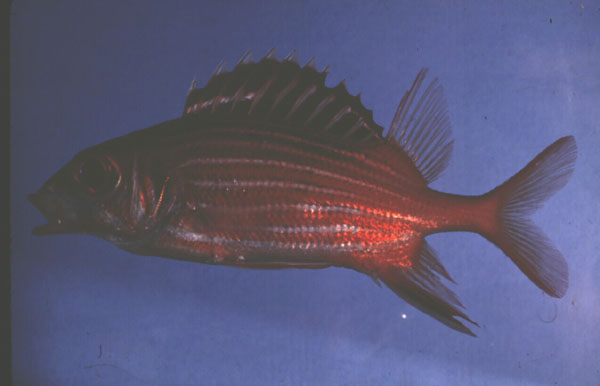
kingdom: Animalia
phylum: Chordata
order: Beryciformes
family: Holocentridae
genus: Sargocentron
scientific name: Sargocentron diadema
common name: Crown squirrelfish
